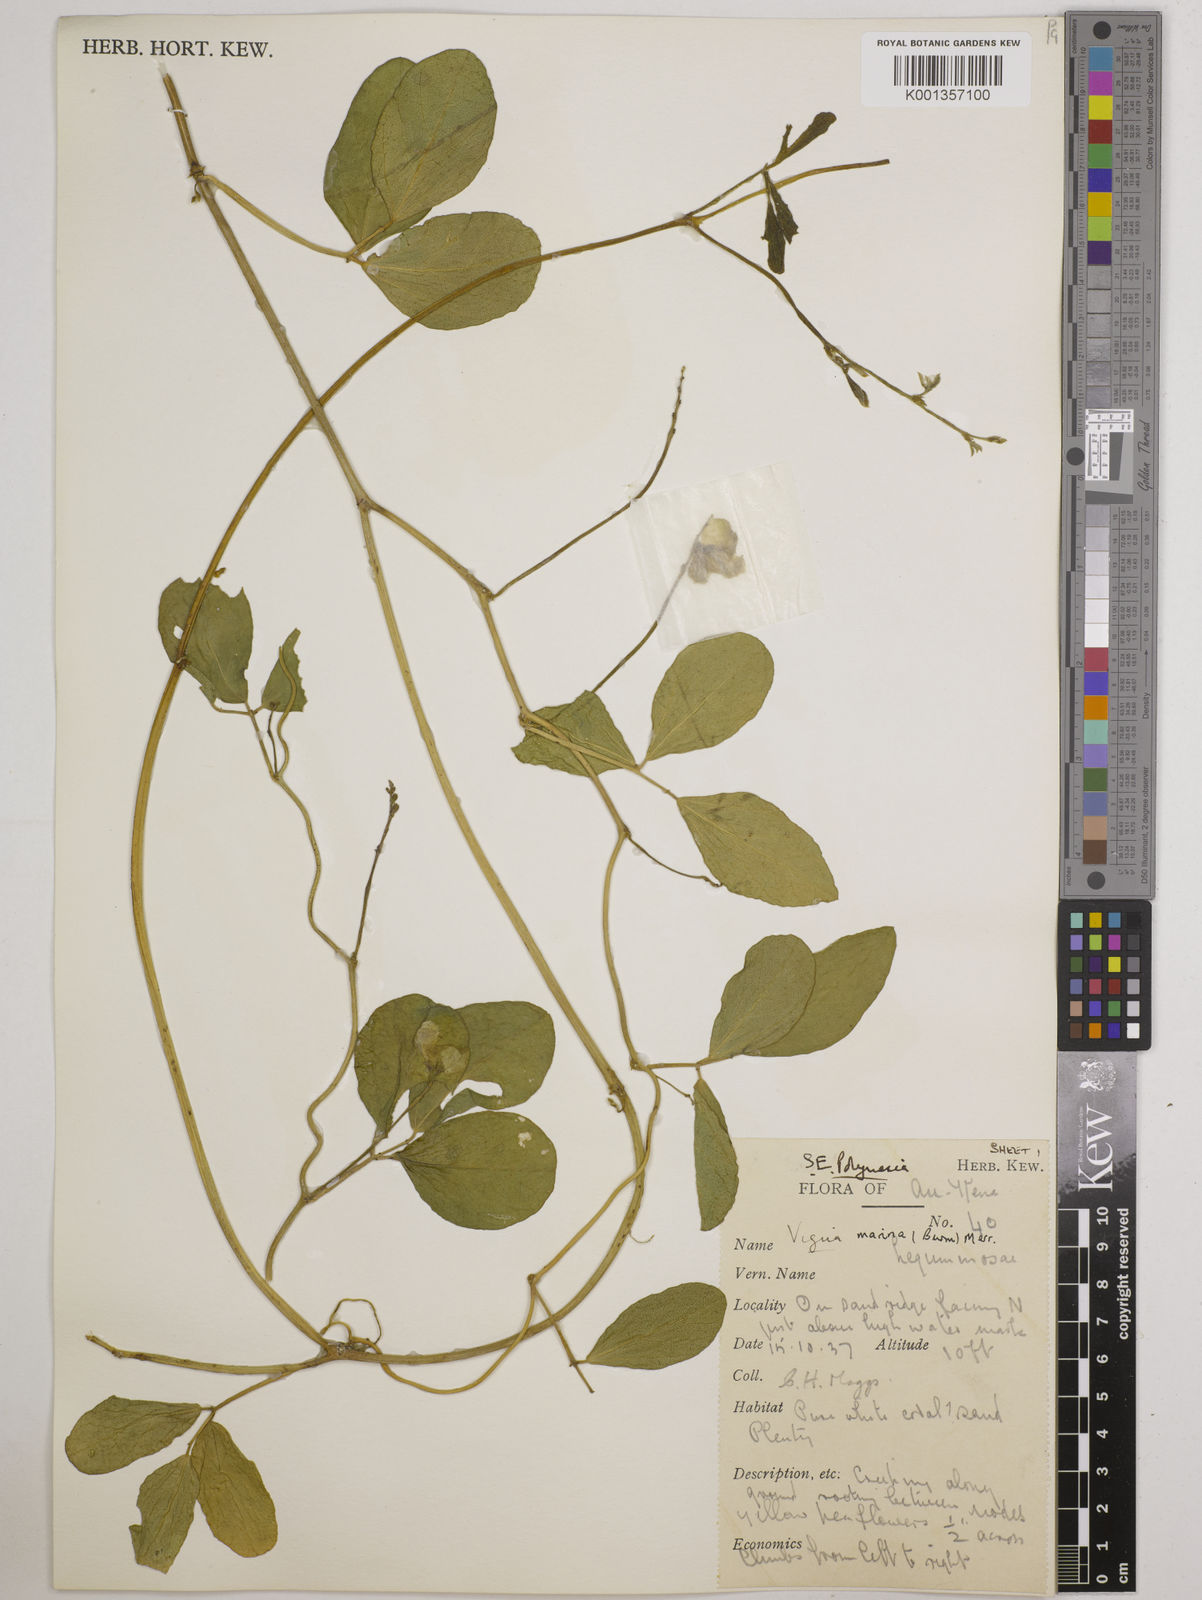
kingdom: Plantae
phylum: Tracheophyta
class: Magnoliopsida
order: Fabales
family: Fabaceae
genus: Vigna
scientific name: Vigna marina
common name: Dune-bean
